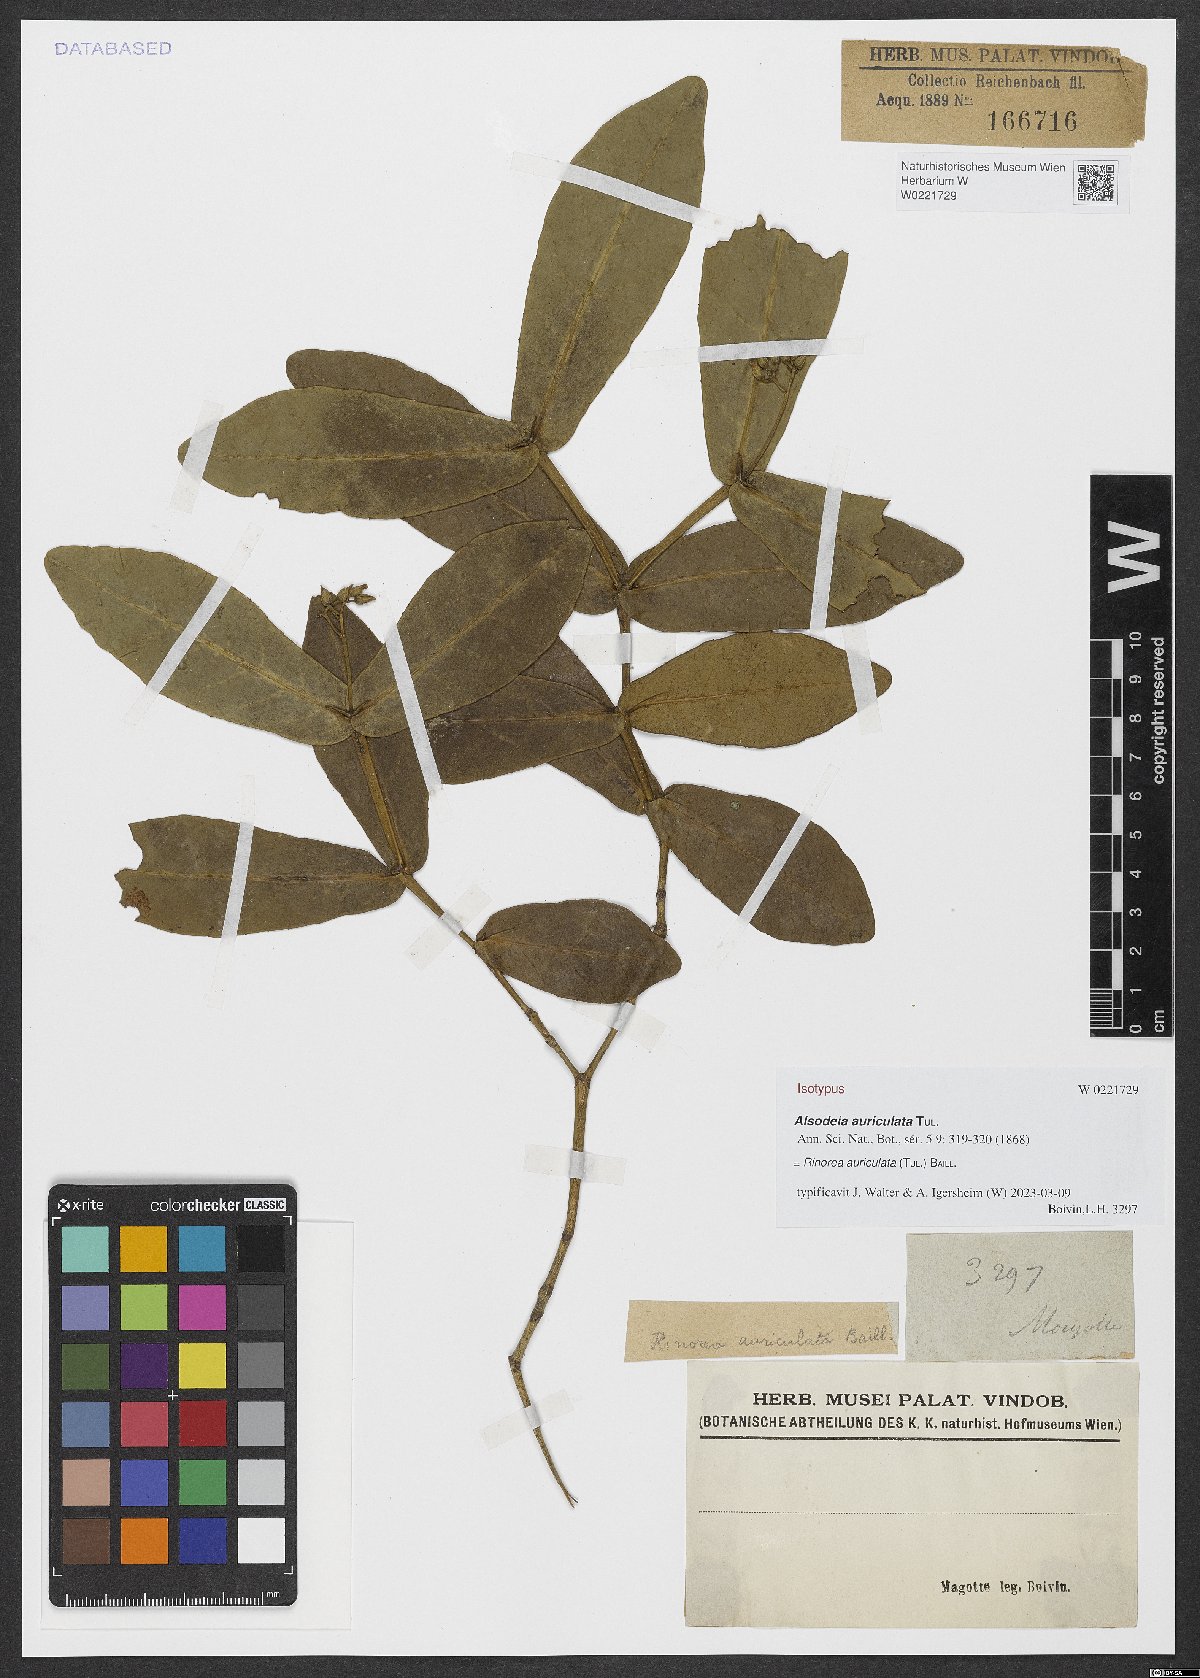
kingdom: Plantae
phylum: Tracheophyta
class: Magnoliopsida
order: Malpighiales
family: Violaceae
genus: Rinorea
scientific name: Rinorea auriculata
